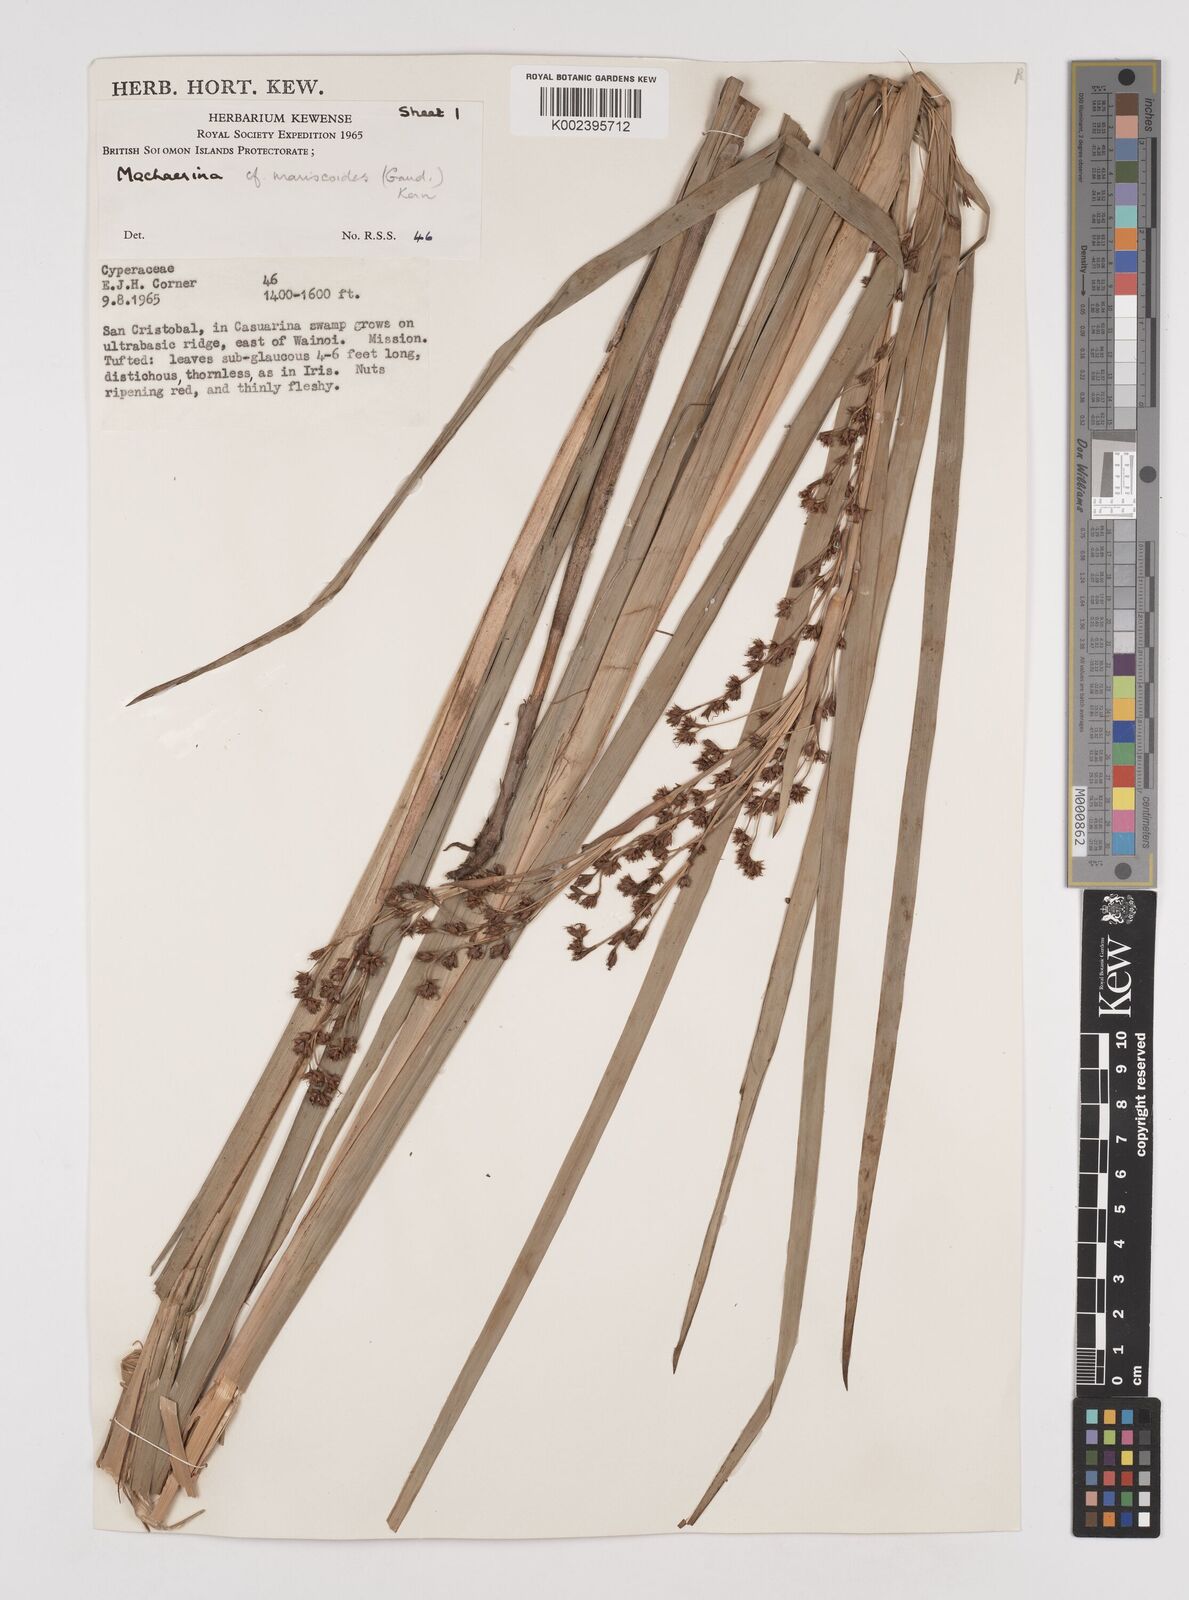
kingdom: Plantae
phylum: Tracheophyta
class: Liliopsida
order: Poales
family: Cyperaceae
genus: Machaerina
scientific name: Machaerina mariscoides
